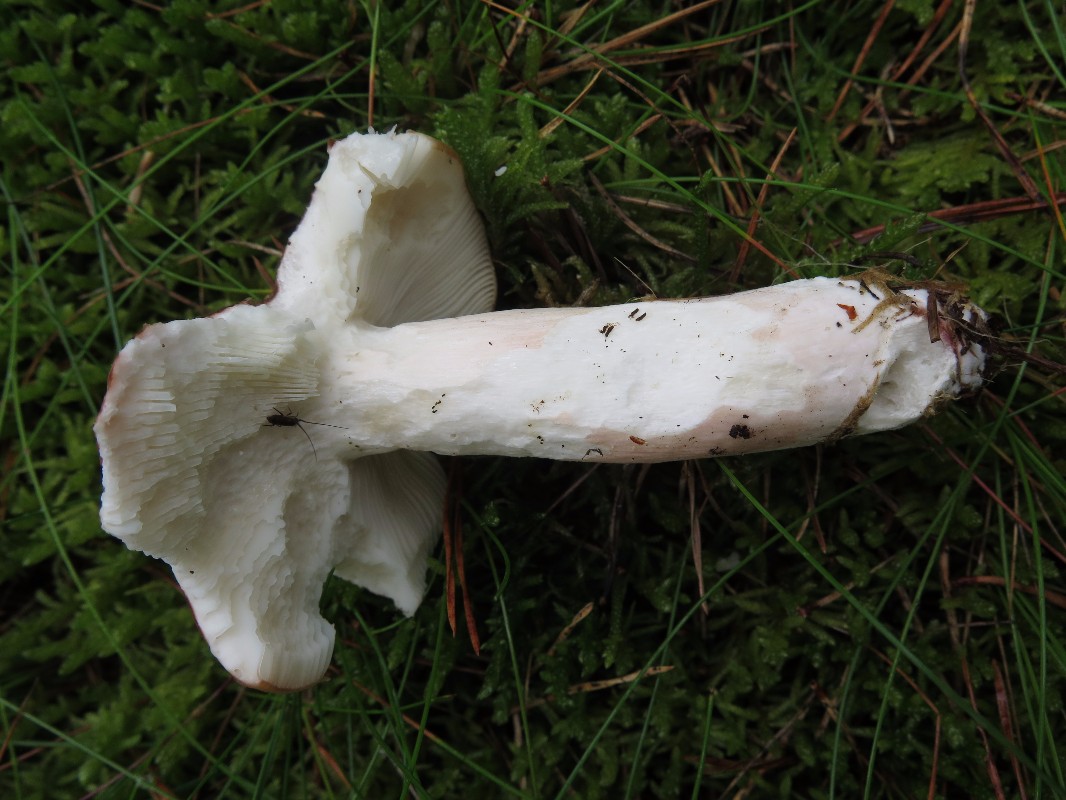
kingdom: Fungi
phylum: Basidiomycota
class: Agaricomycetes
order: Russulales
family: Russulaceae
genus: Russula
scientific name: Russula paludosa
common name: prægtig skørhat
